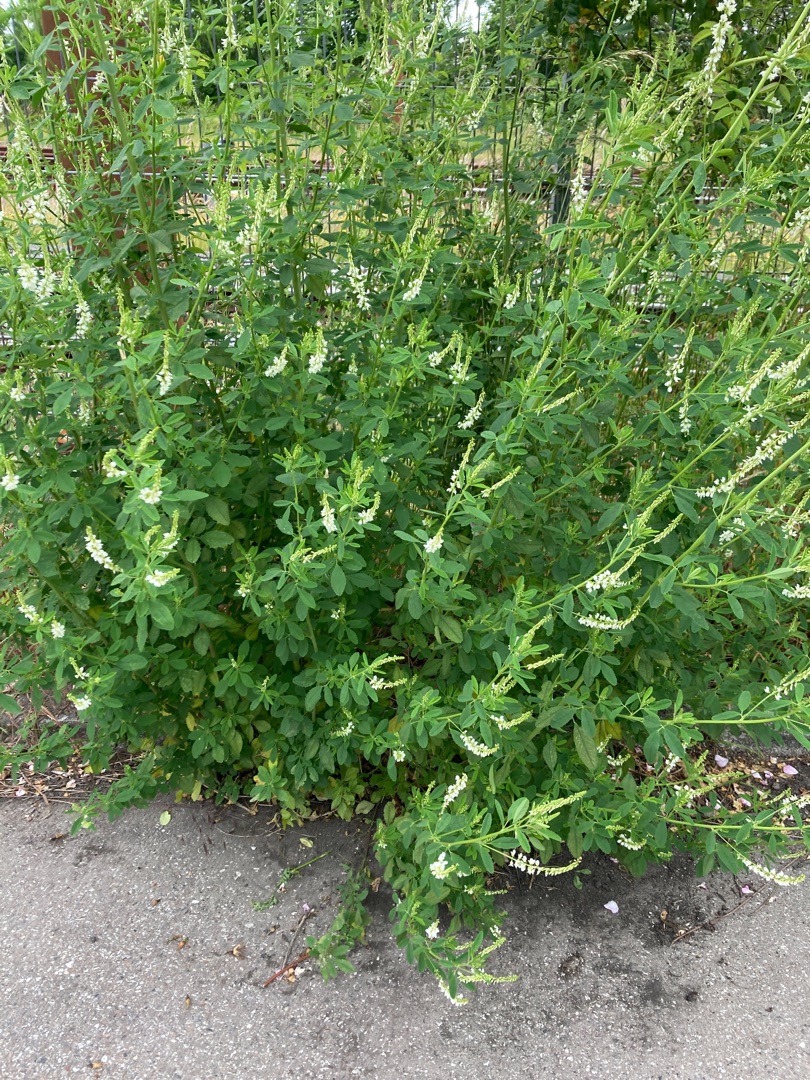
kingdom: Plantae
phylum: Tracheophyta
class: Magnoliopsida
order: Fabales
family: Fabaceae
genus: Melilotus
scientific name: Melilotus albus
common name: Hvid stenkløver
